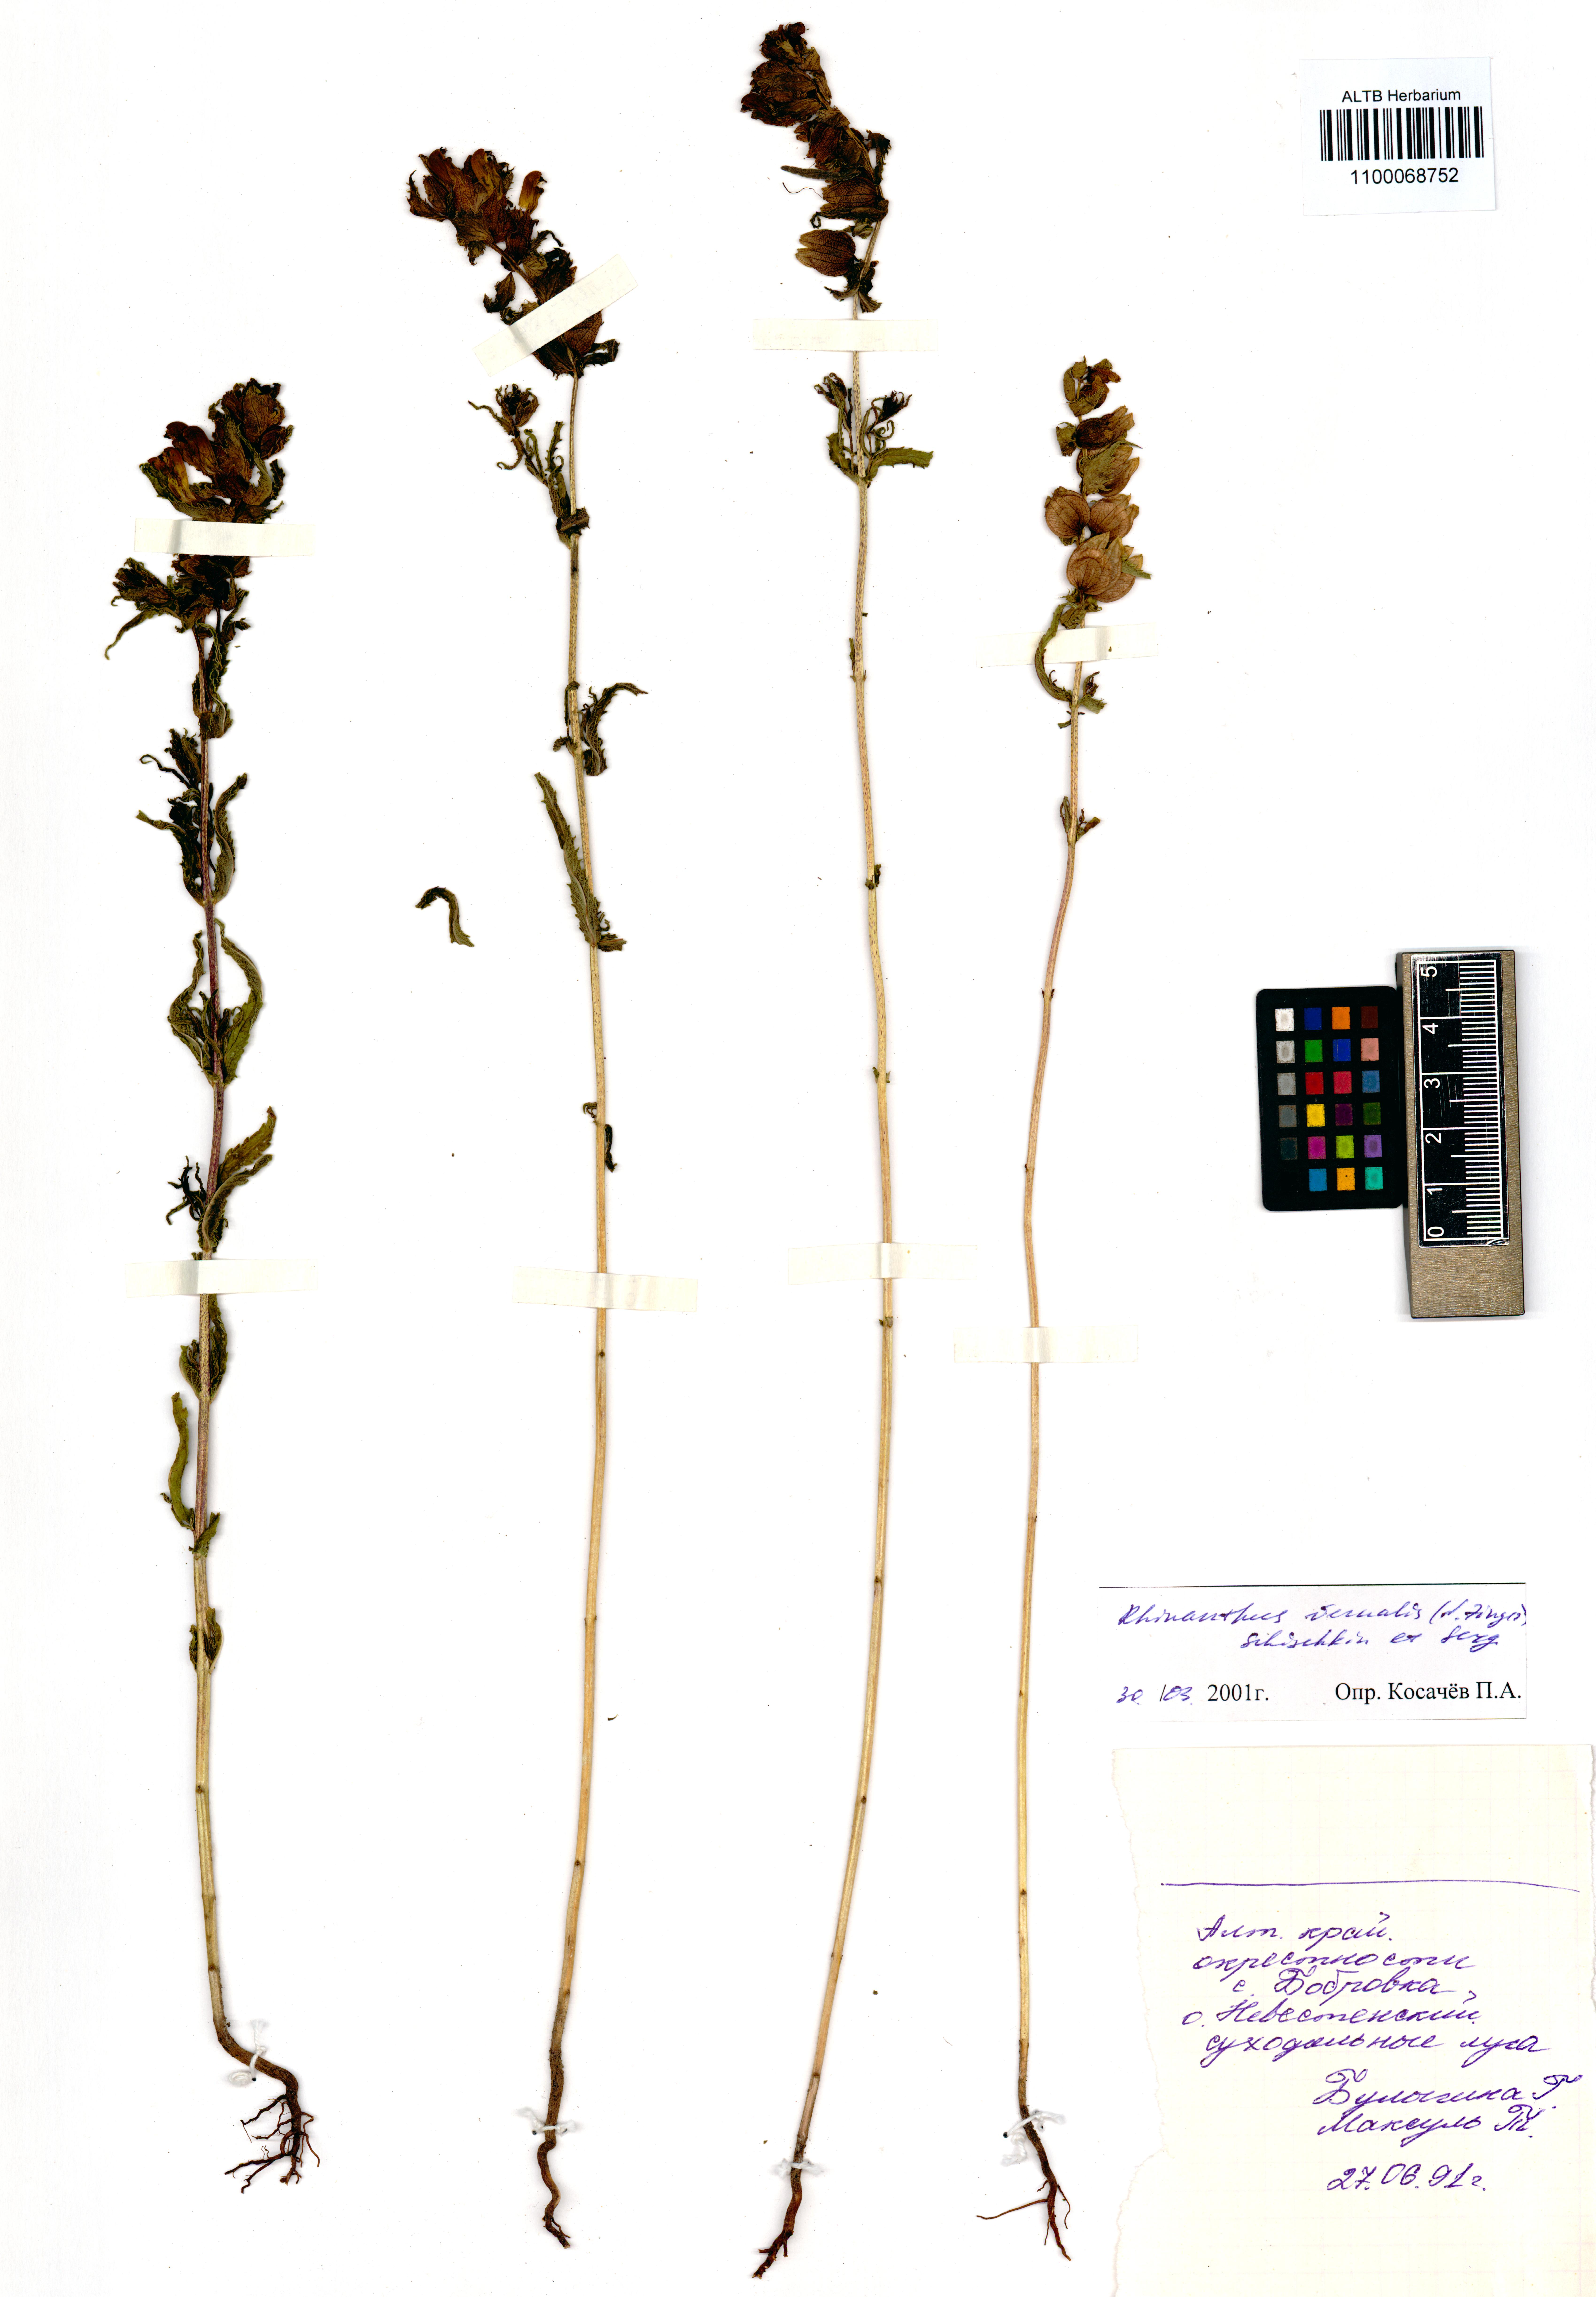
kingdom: Plantae
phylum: Tracheophyta
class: Magnoliopsida
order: Lamiales
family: Orobanchaceae
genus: Rhinanthus
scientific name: Rhinanthus serotinus
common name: Late-flowering yellow rattle
